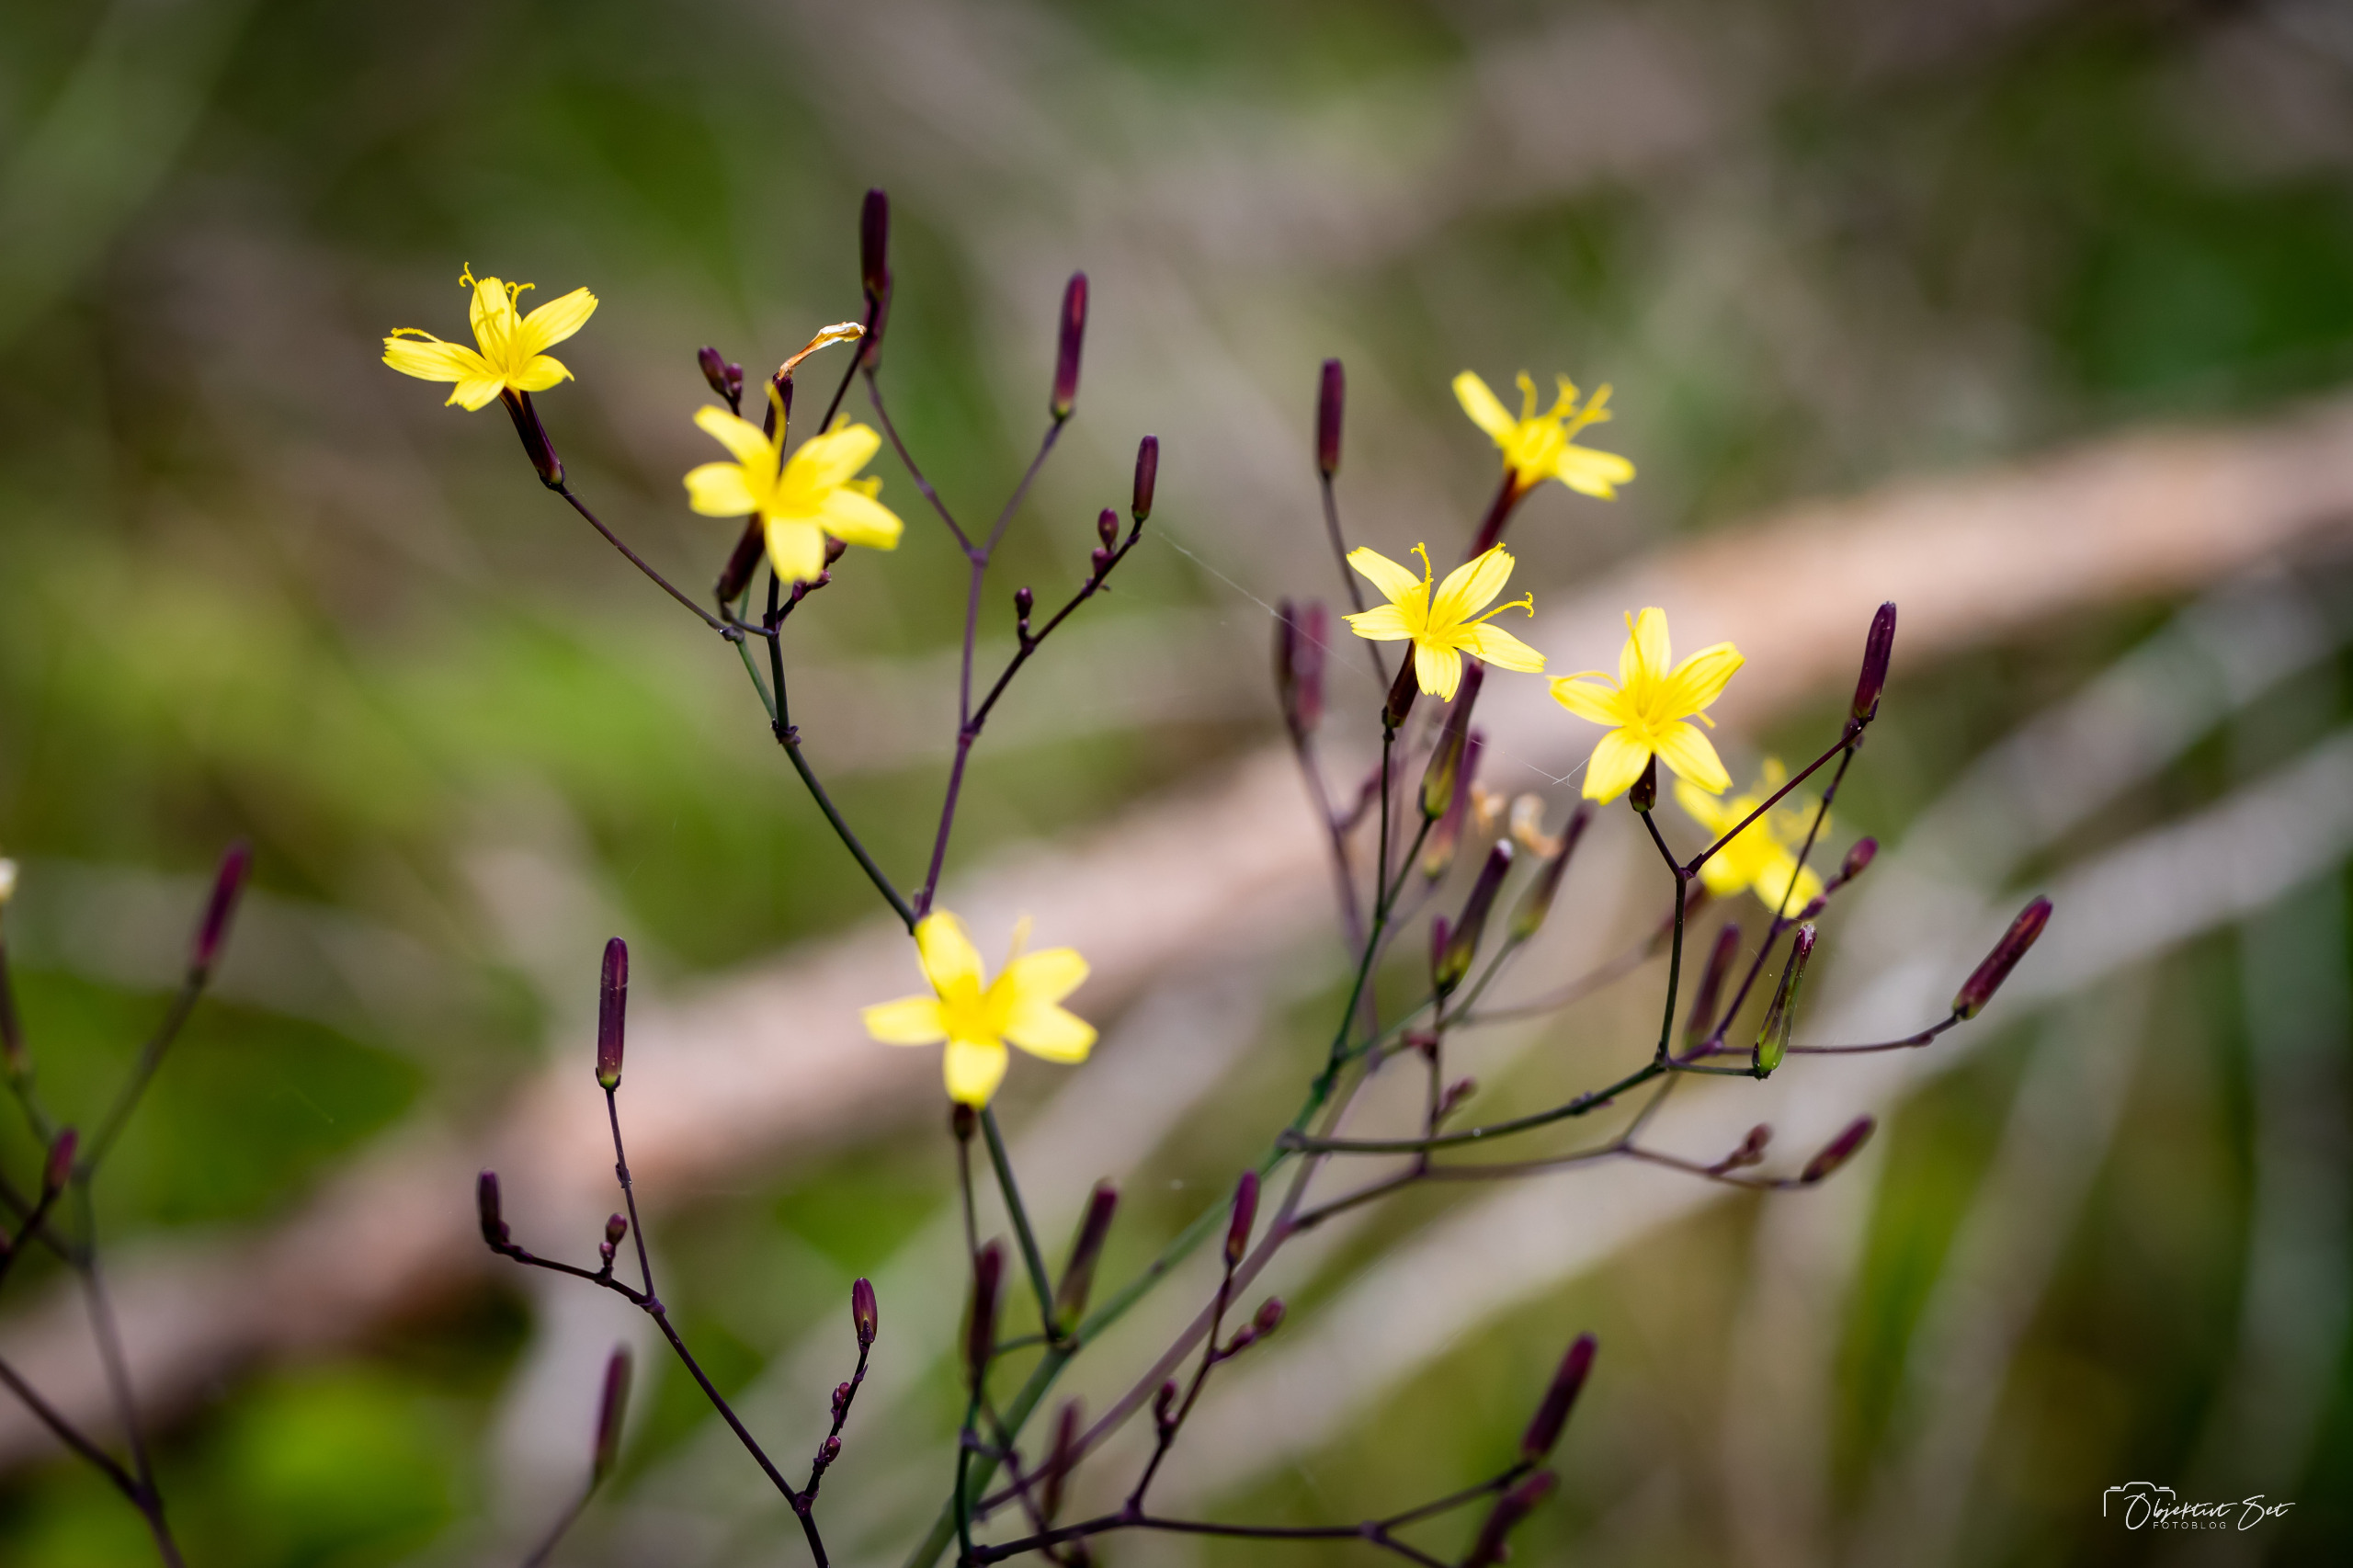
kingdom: Plantae
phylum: Tracheophyta
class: Magnoliopsida
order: Asterales
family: Asteraceae
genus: Mycelis
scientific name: Mycelis muralis
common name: Skov-salat
